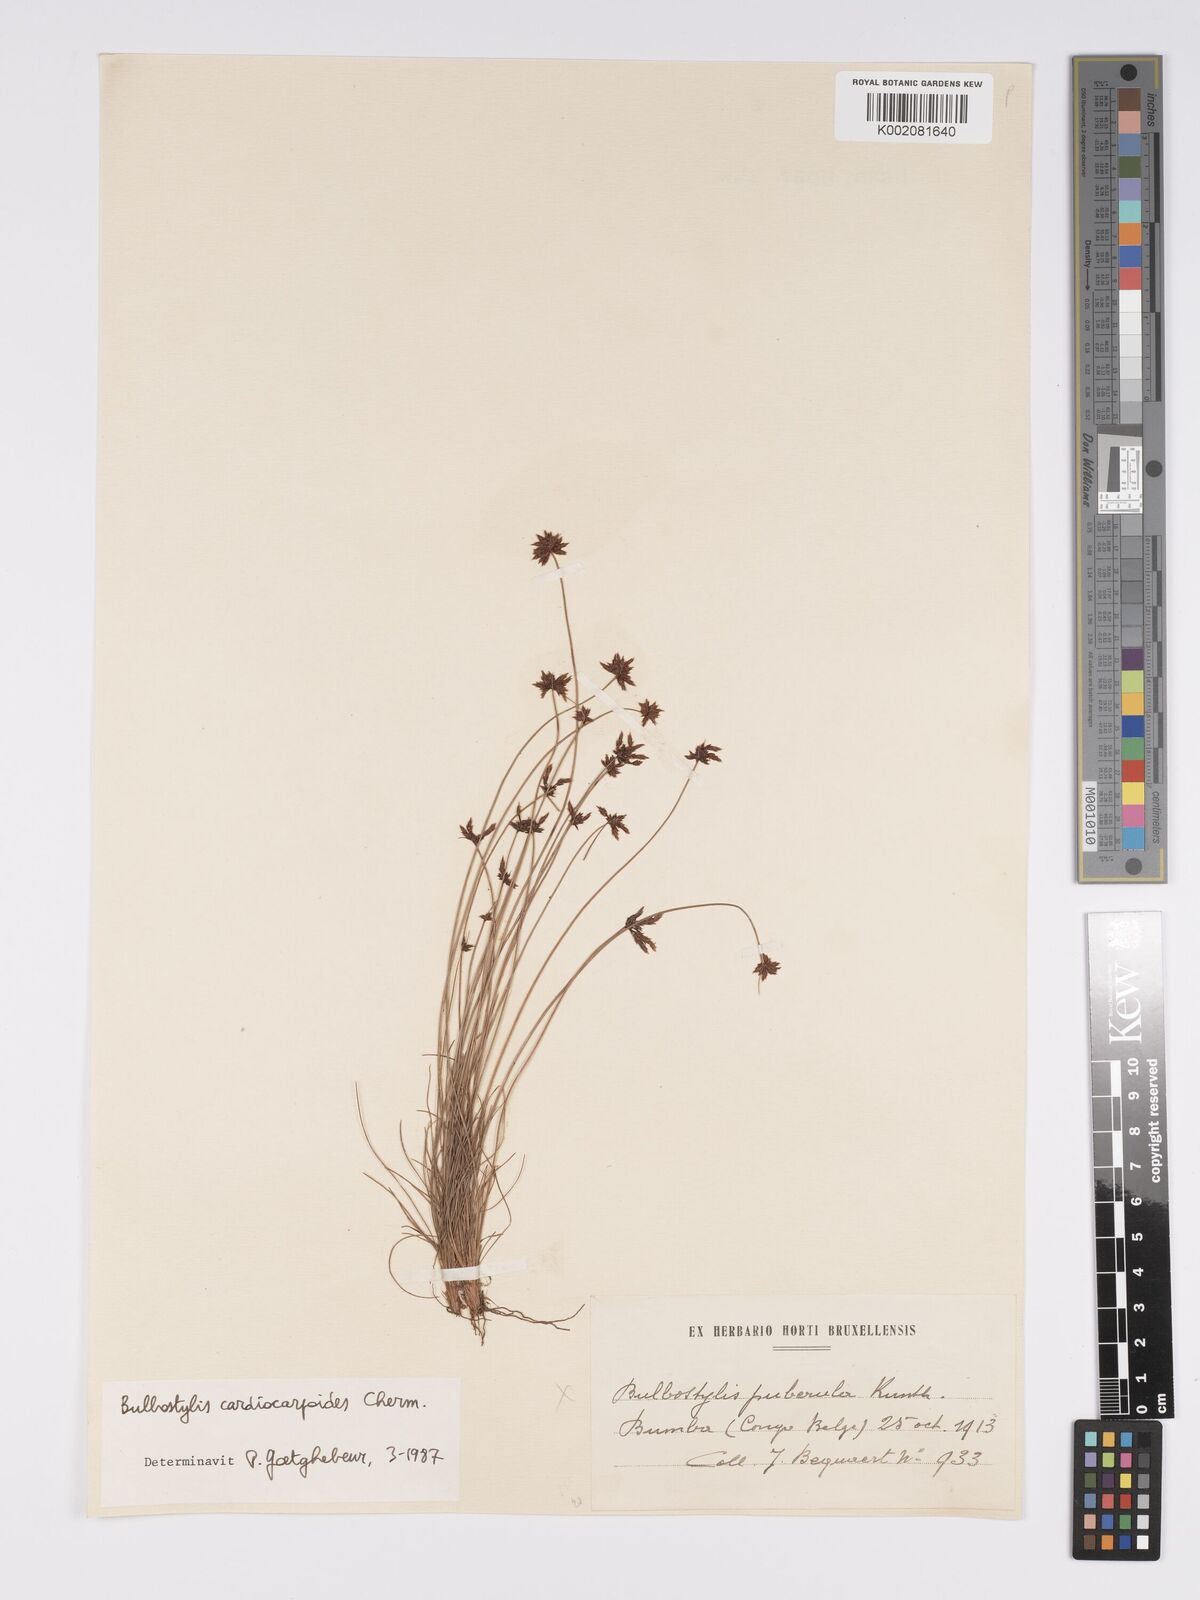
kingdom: Plantae
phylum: Tracheophyta
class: Liliopsida
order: Poales
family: Cyperaceae
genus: Bulbostylis
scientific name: Bulbostylis cardiocarpoides
